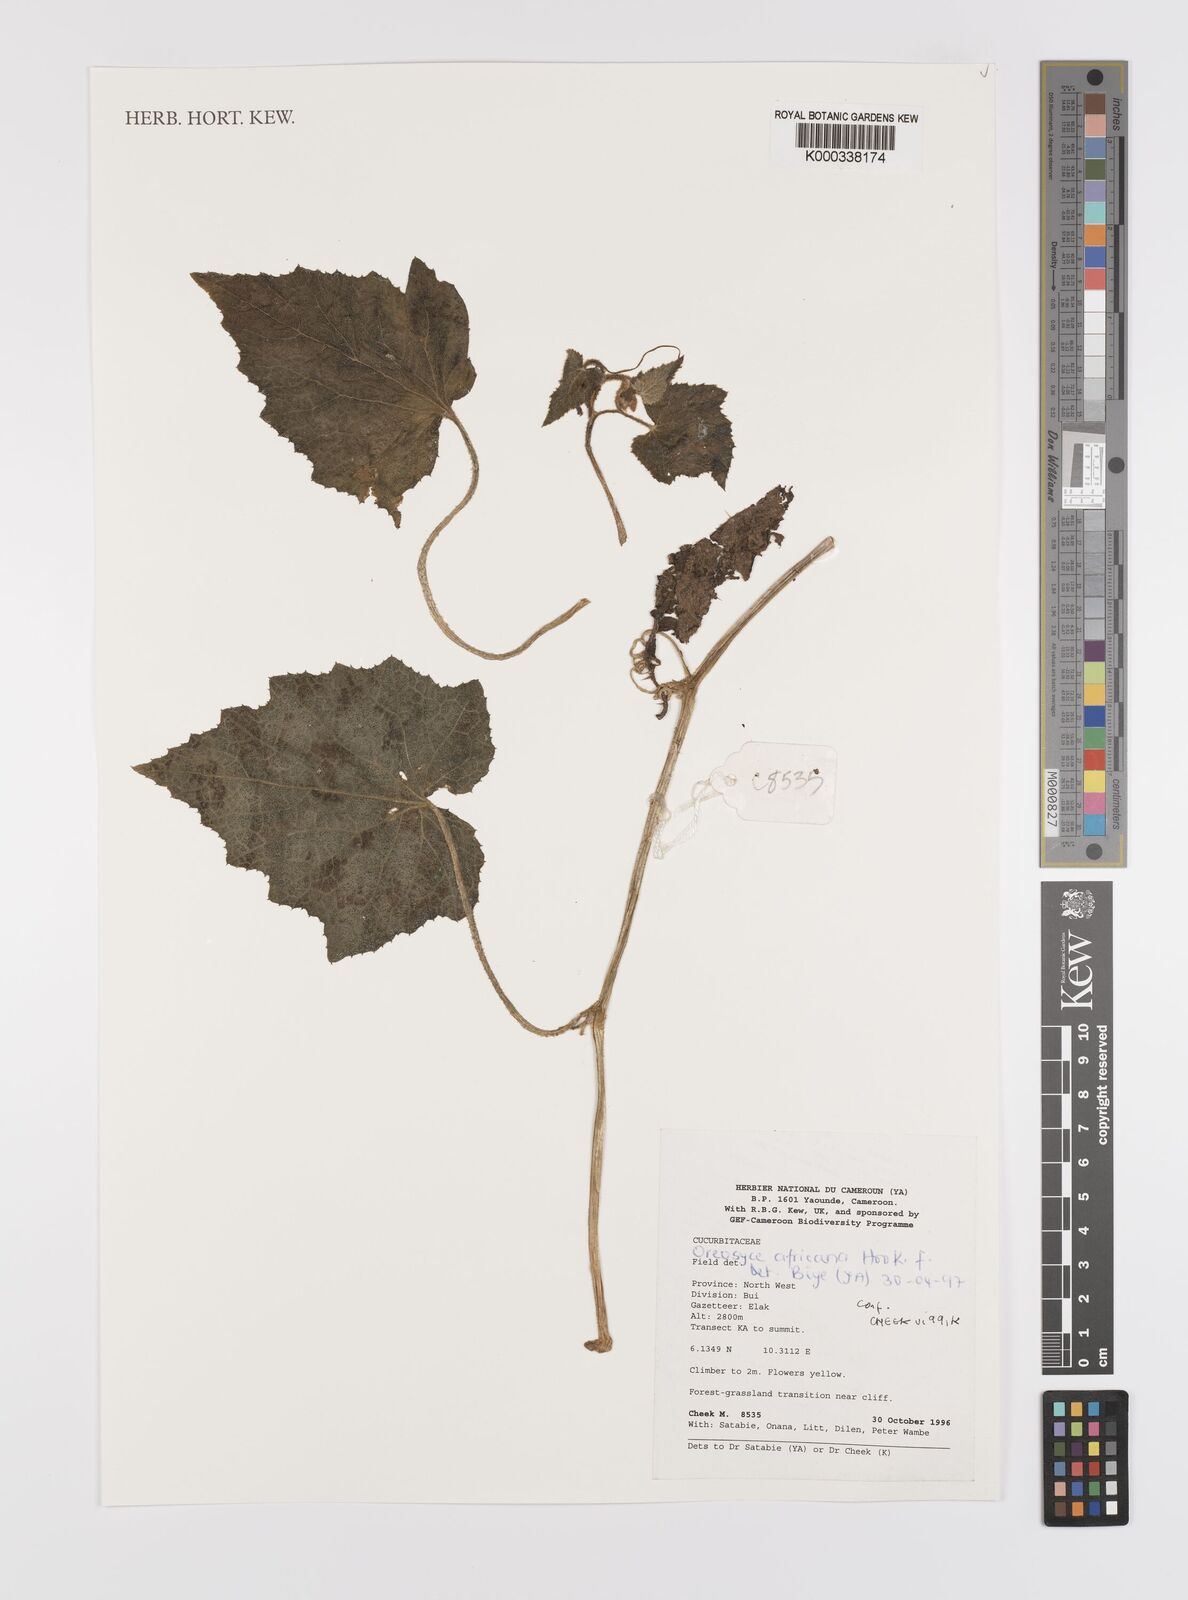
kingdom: Plantae
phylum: Tracheophyta
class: Magnoliopsida
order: Cucurbitales
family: Cucurbitaceae
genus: Cucumis
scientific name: Cucumis oreosyce
